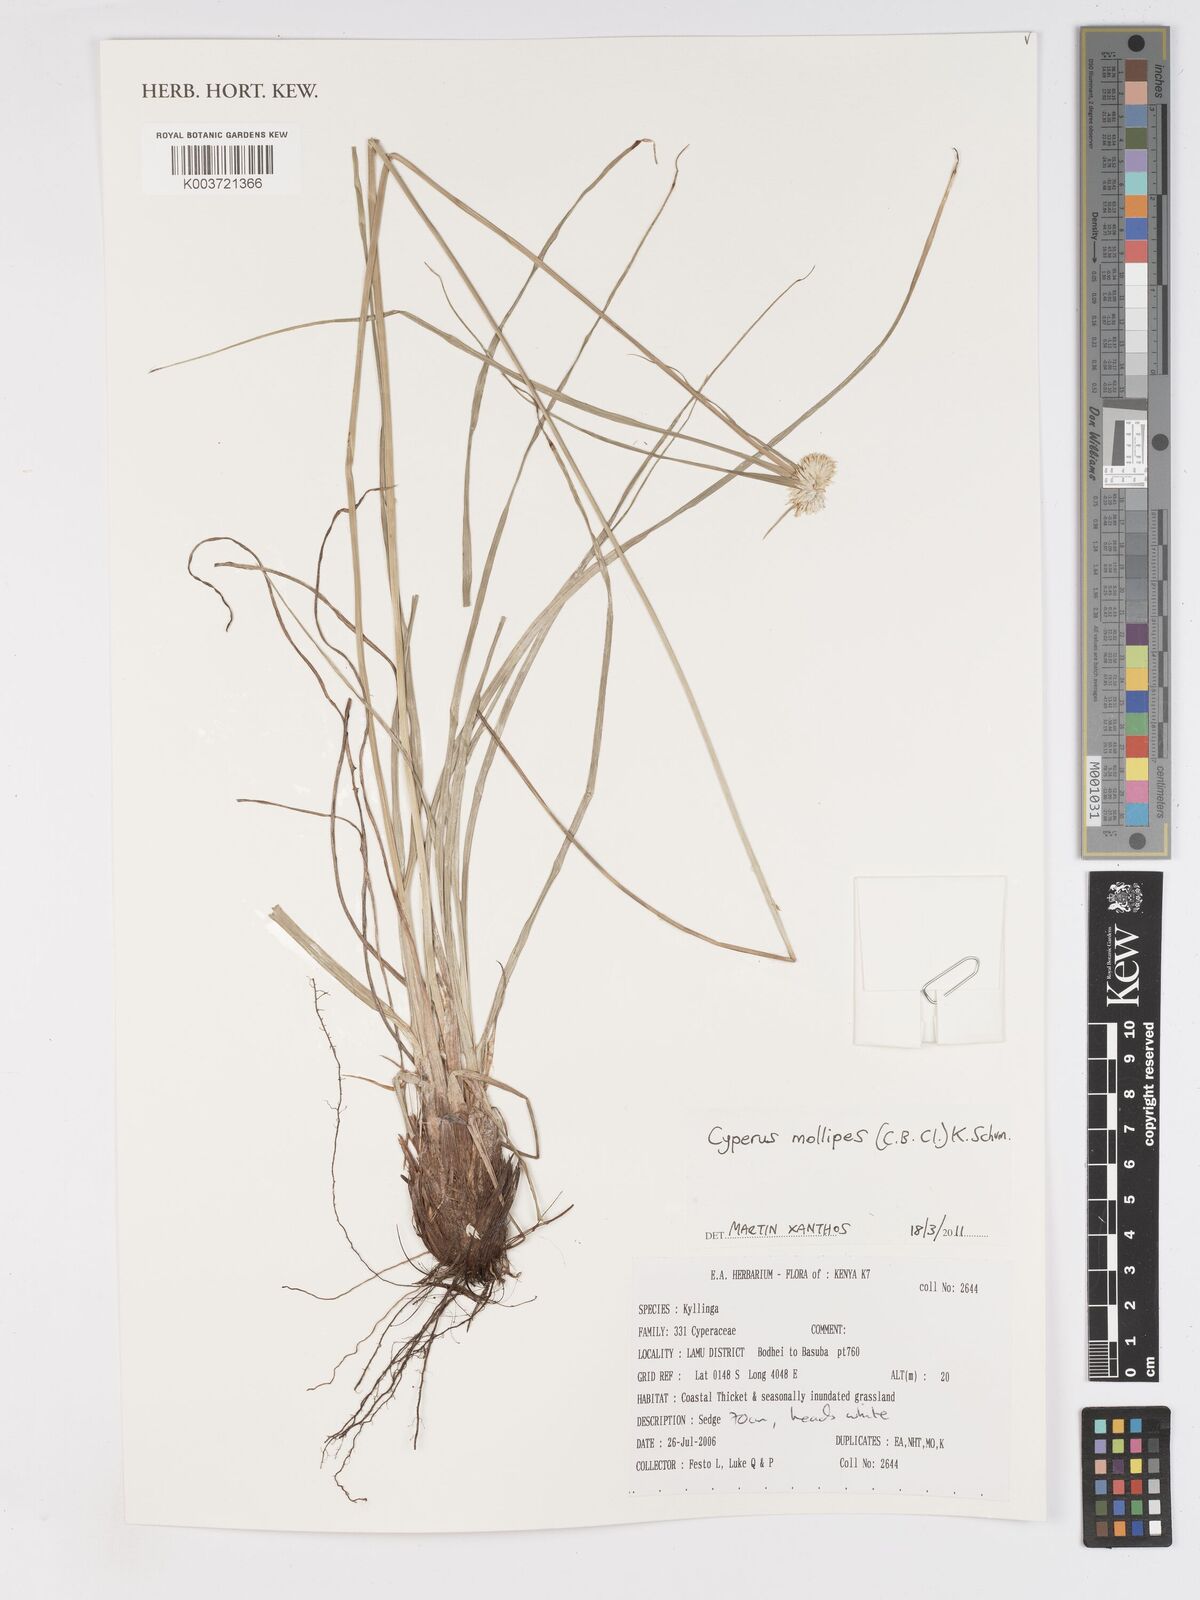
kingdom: Plantae
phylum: Tracheophyta
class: Liliopsida
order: Poales
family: Cyperaceae
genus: Cyperus
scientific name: Cyperus mollipes
